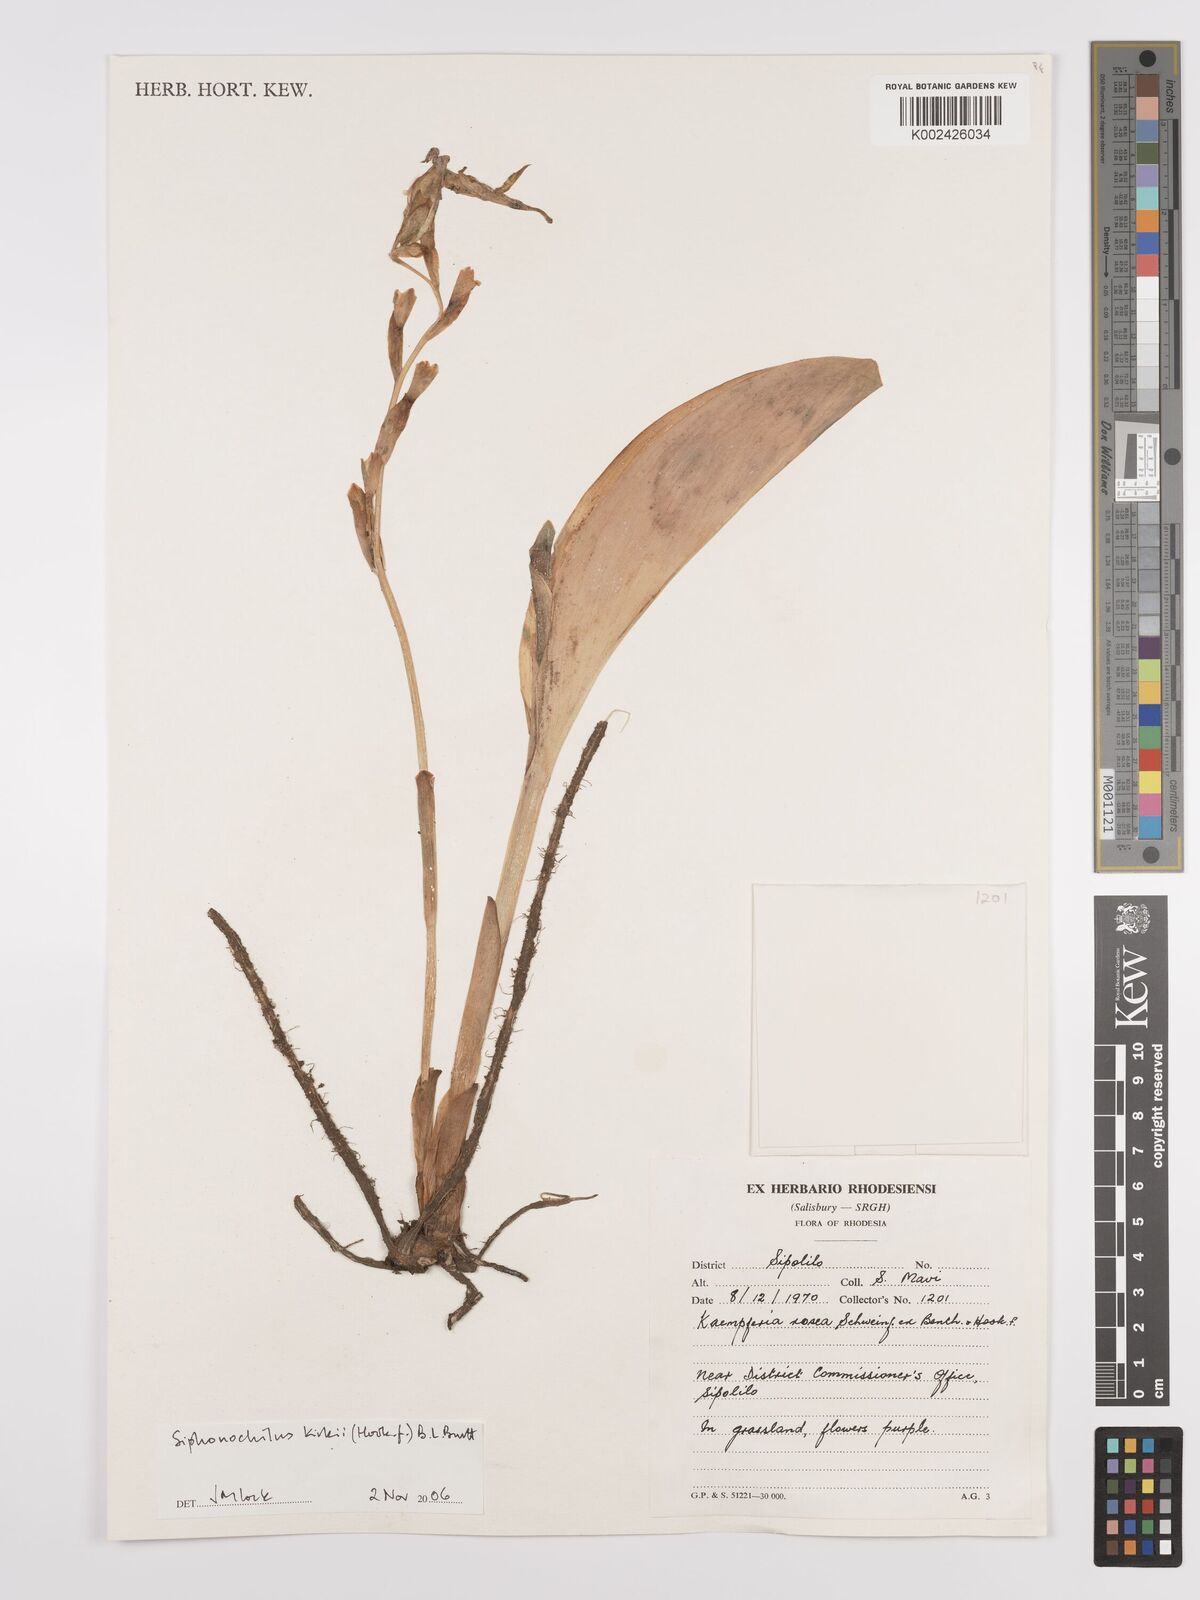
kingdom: Plantae
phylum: Tracheophyta
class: Liliopsida
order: Zingiberales
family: Zingiberaceae
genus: Siphonochilus
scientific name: Siphonochilus kirkii
